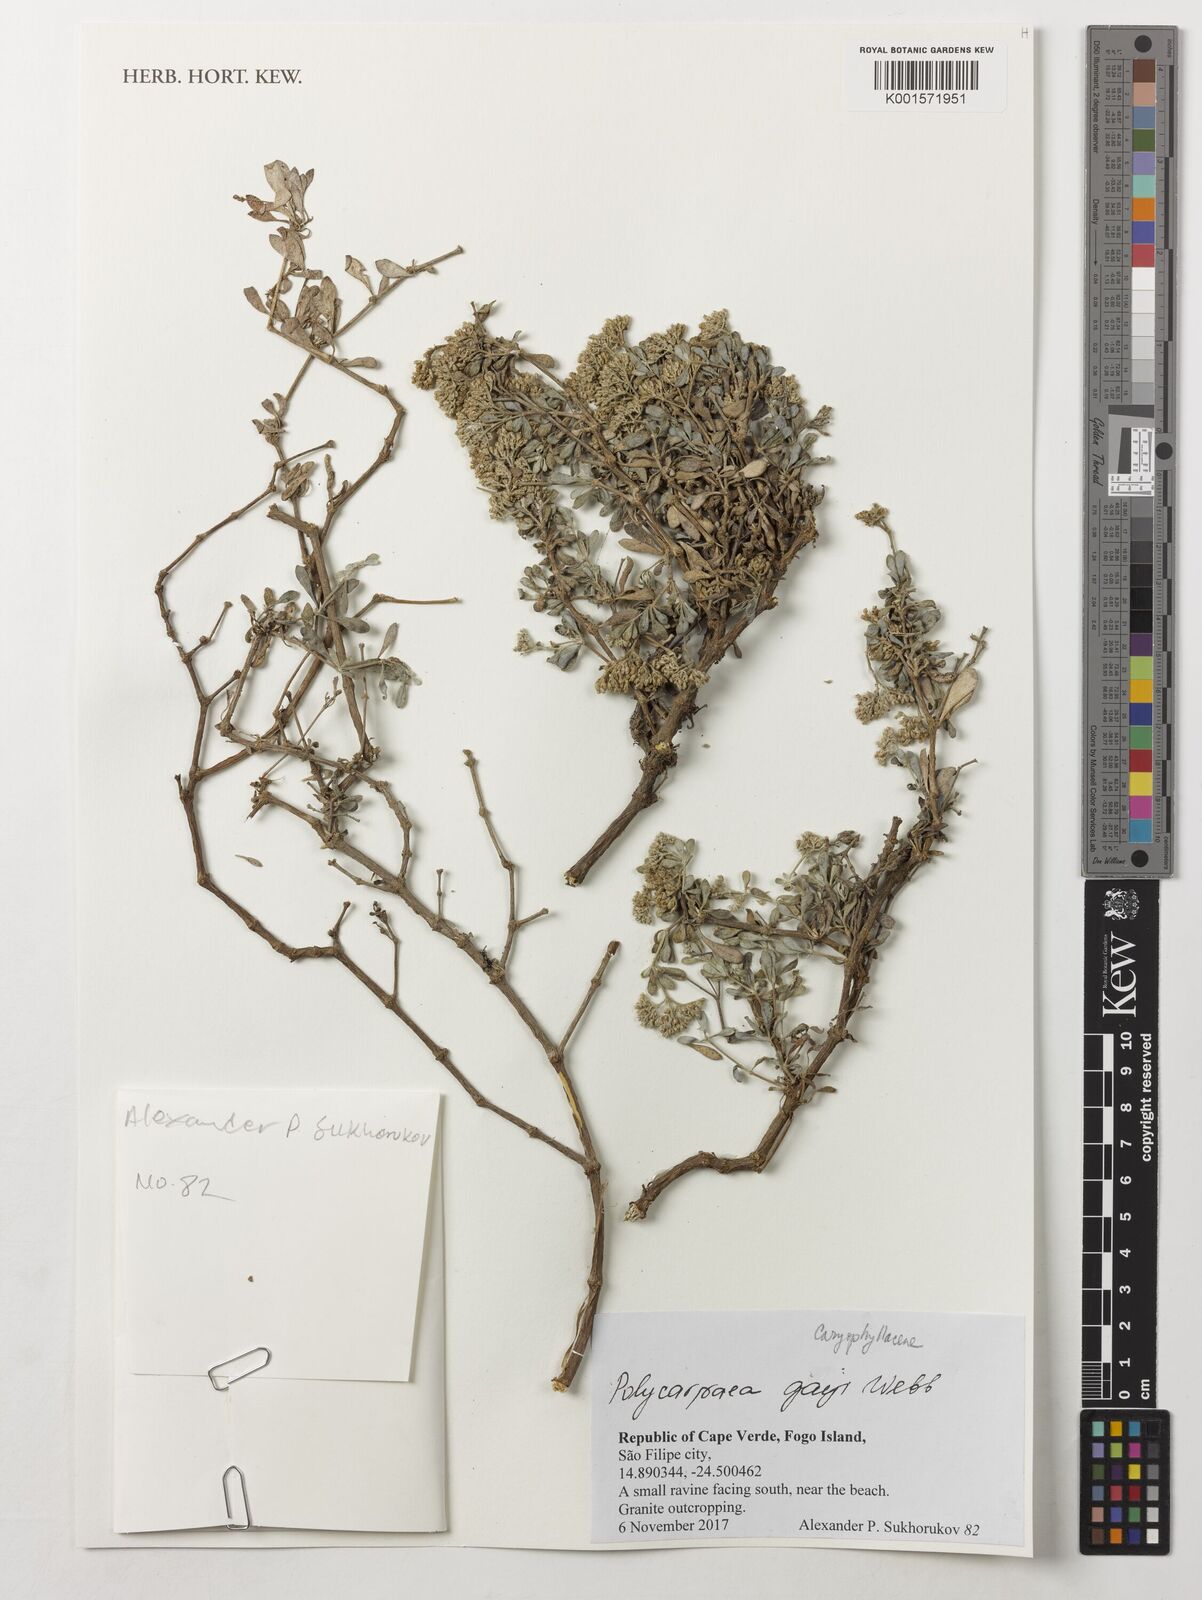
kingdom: Plantae
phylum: Tracheophyta
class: Magnoliopsida
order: Caryophyllales
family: Caryophyllaceae
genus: Polycarpaea
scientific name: Polycarpaea gayi
